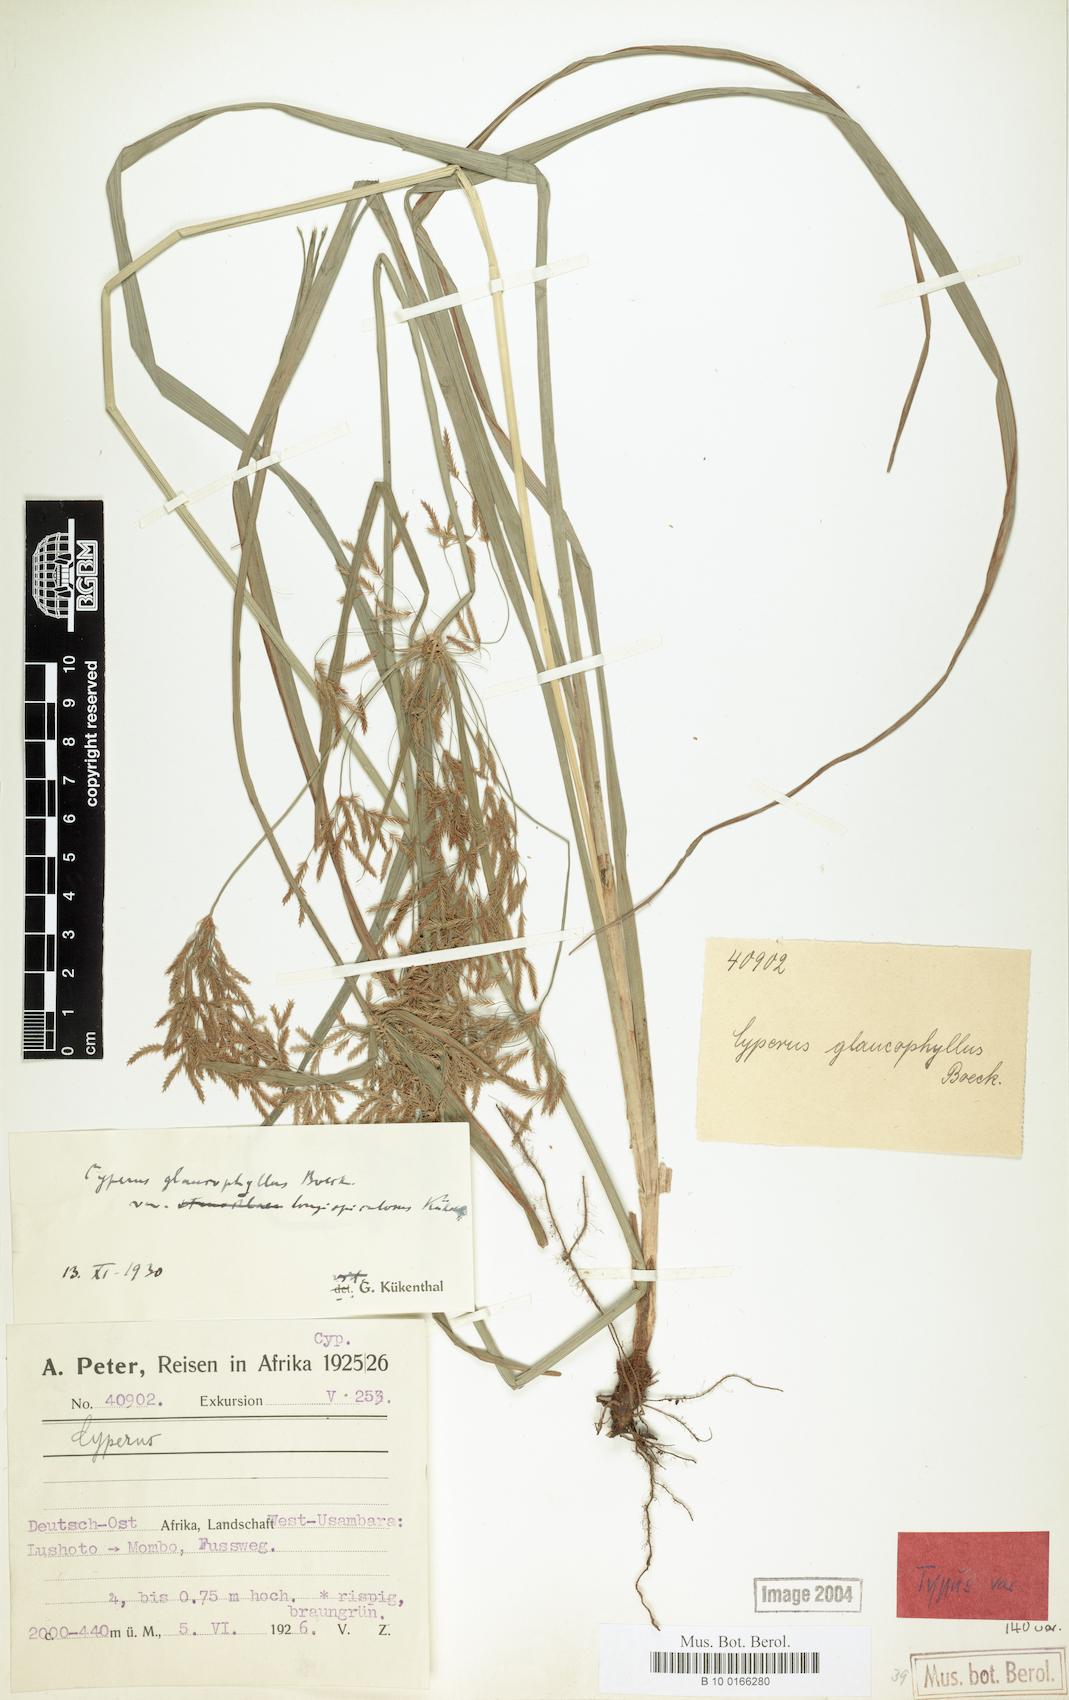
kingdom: Plantae
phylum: Tracheophyta
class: Liliopsida
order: Poales
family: Cyperaceae
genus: Cyperus
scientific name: Cyperus glaucophyllus
